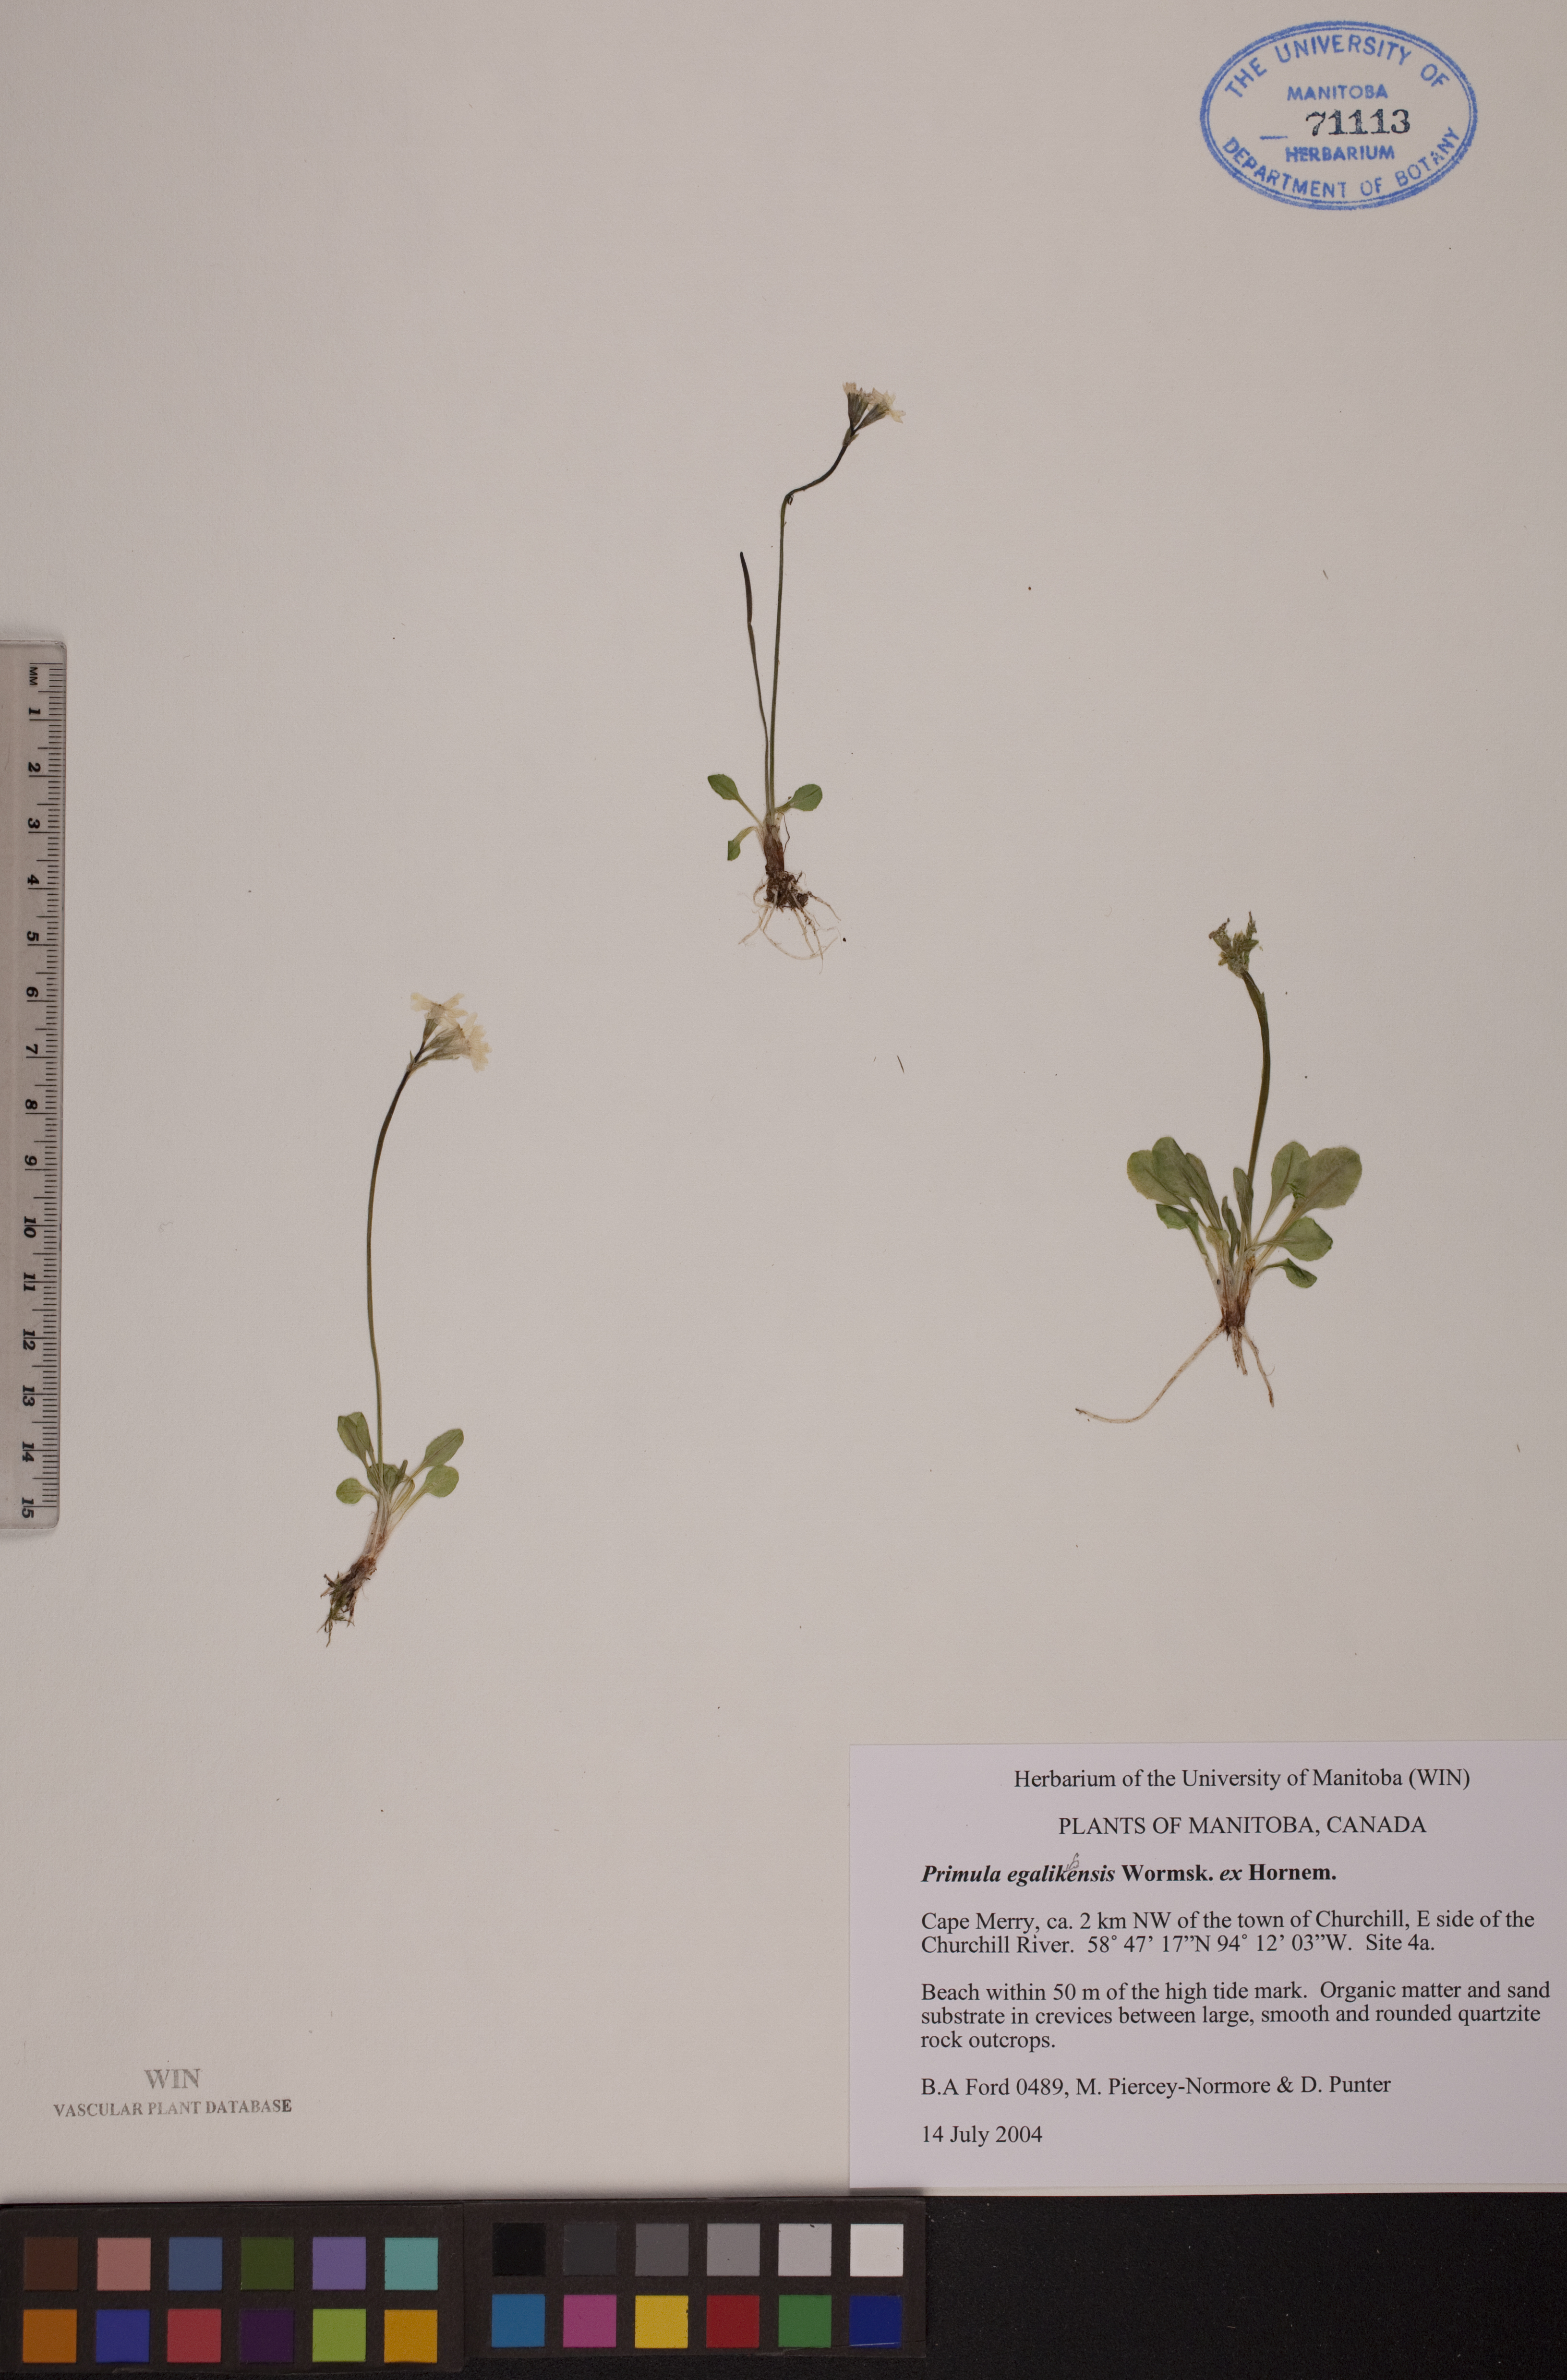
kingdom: Plantae
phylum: Tracheophyta
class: Magnoliopsida
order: Ericales
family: Primulaceae
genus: Primula
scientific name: Primula egaliksensis
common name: Greenland primrose
